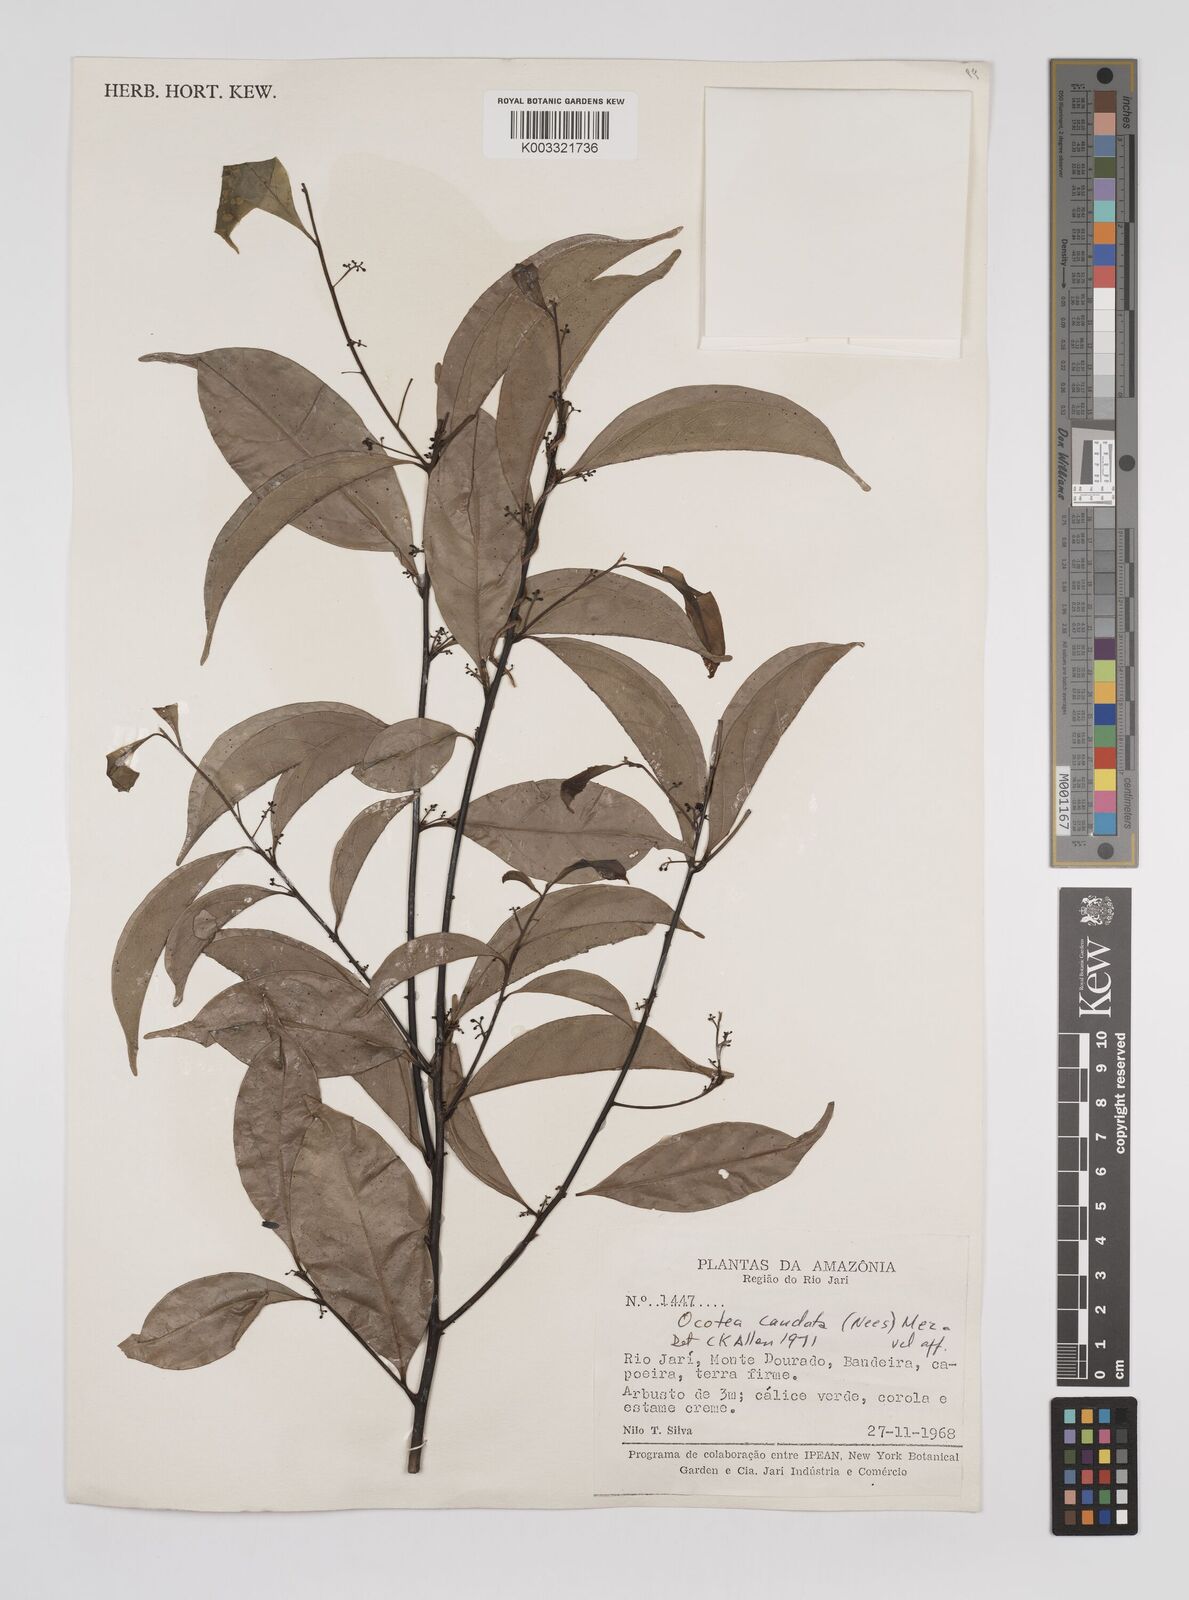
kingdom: Plantae
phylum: Tracheophyta
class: Magnoliopsida
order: Laurales
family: Lauraceae
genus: Ocotea
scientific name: Ocotea leptobotra
